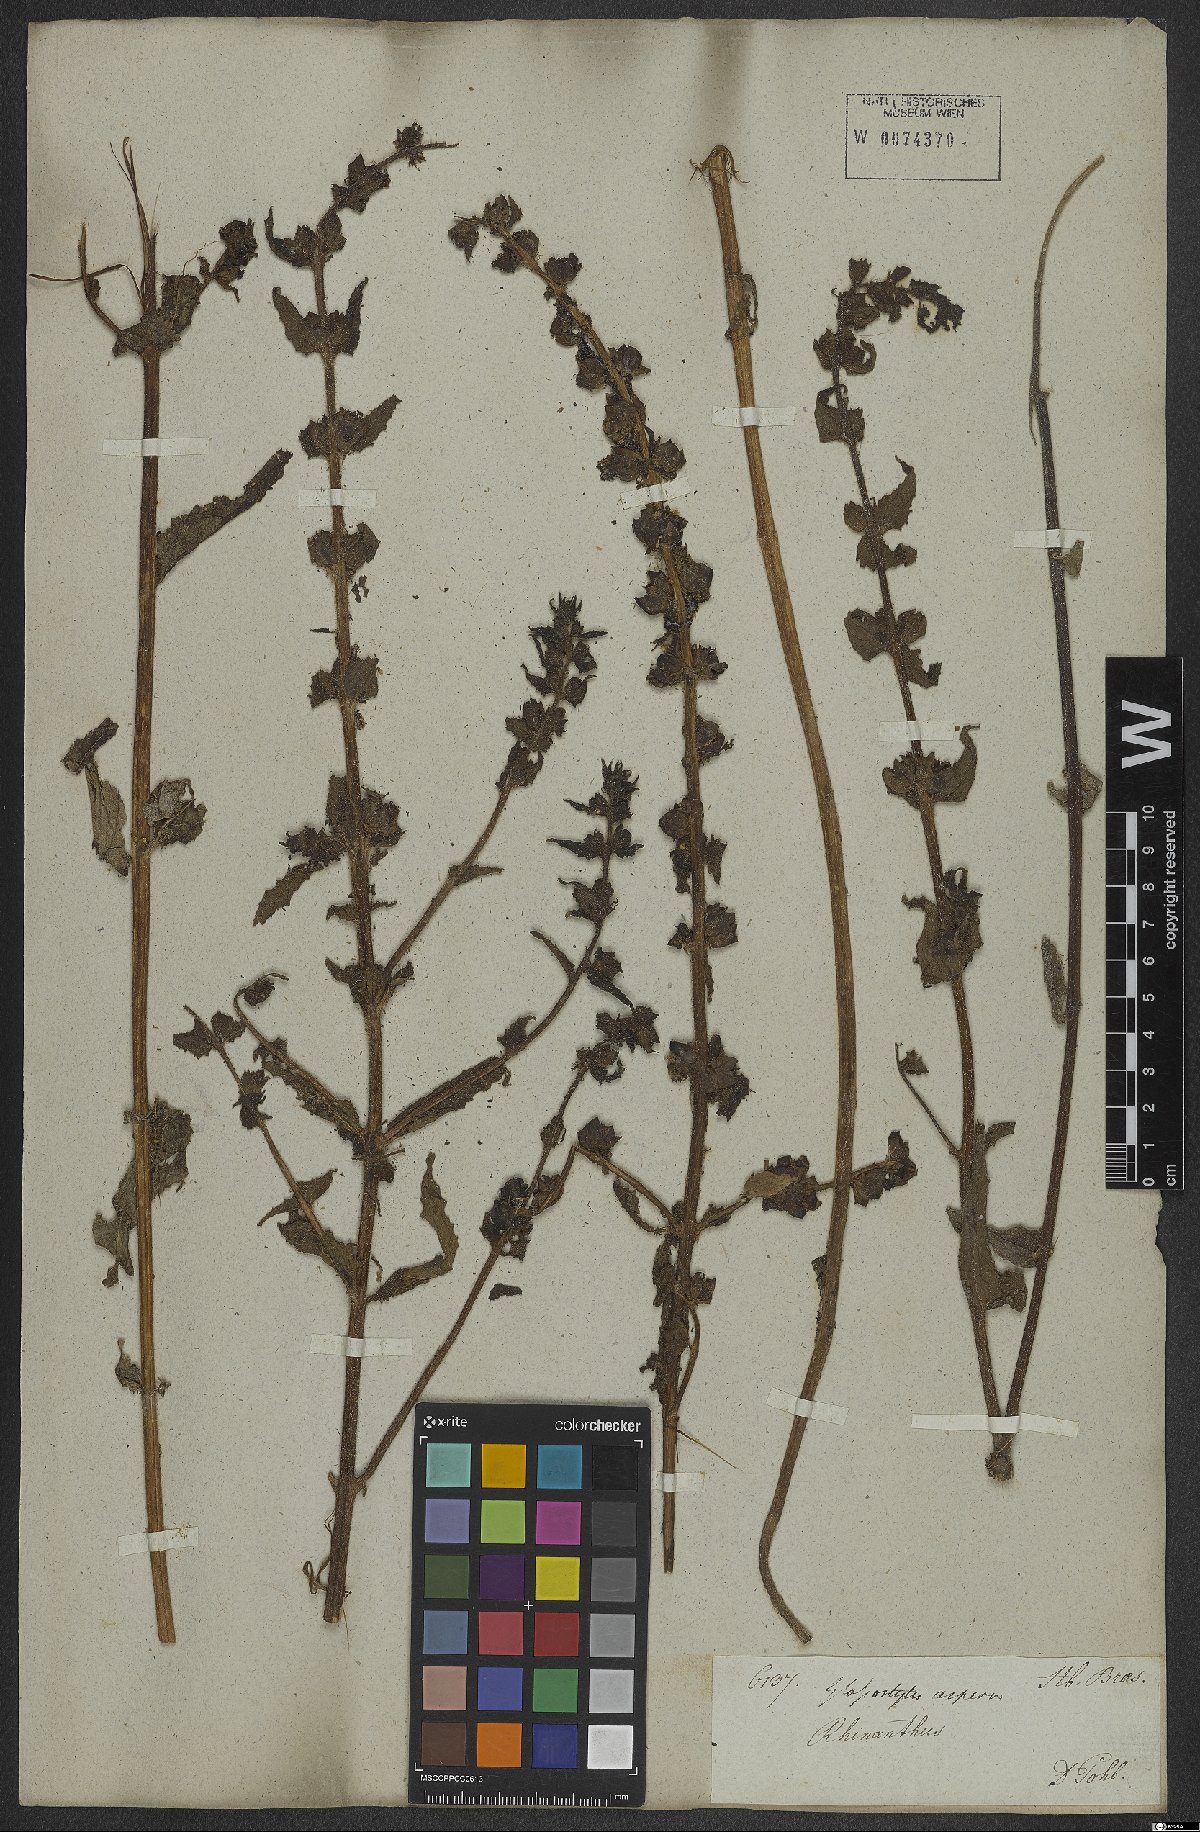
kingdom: Plantae
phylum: Tracheophyta
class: Magnoliopsida
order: Lamiales
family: Orobanchaceae
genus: Melasma
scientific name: Melasma melampyroides
